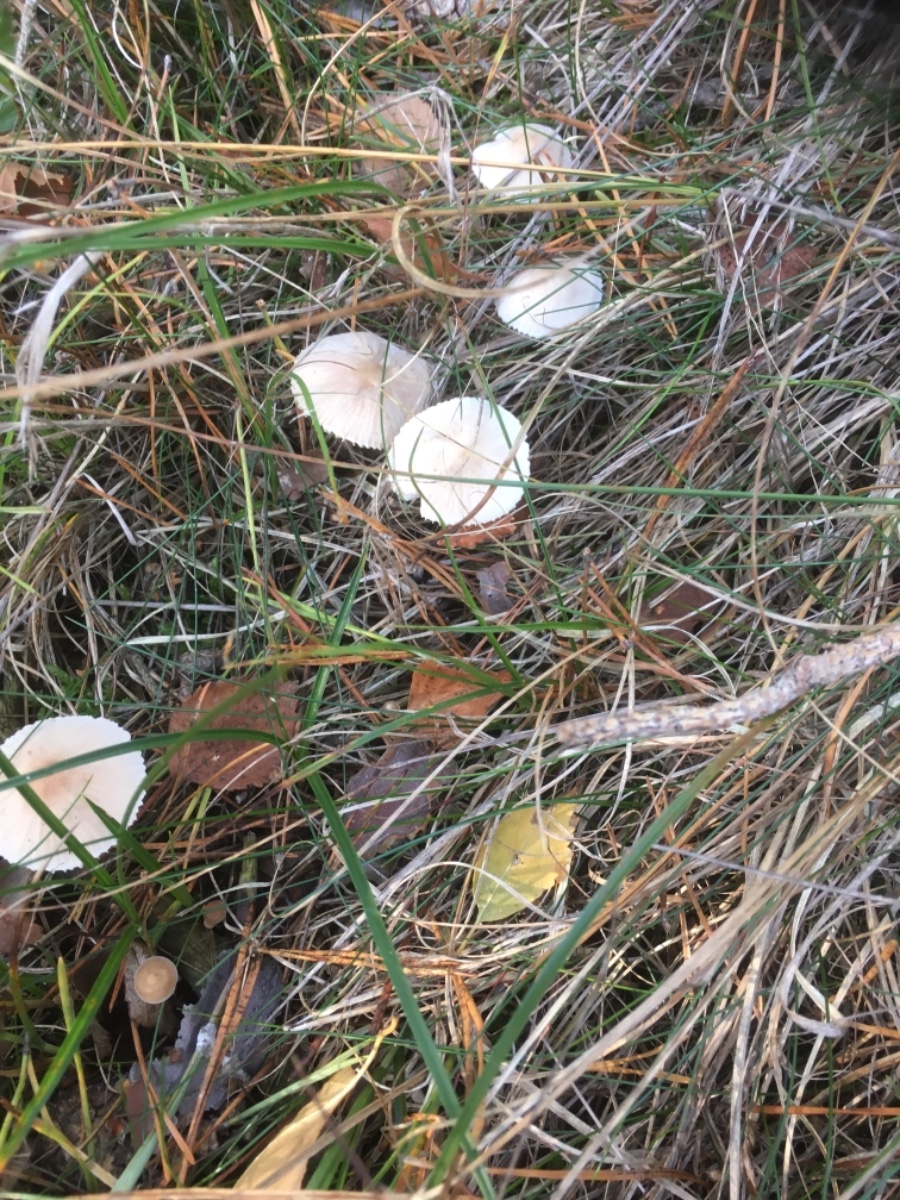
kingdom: Fungi
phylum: Basidiomycota
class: Agaricomycetes
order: Agaricales
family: Mycenaceae
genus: Mycena
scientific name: Mycena
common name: huesvamp
